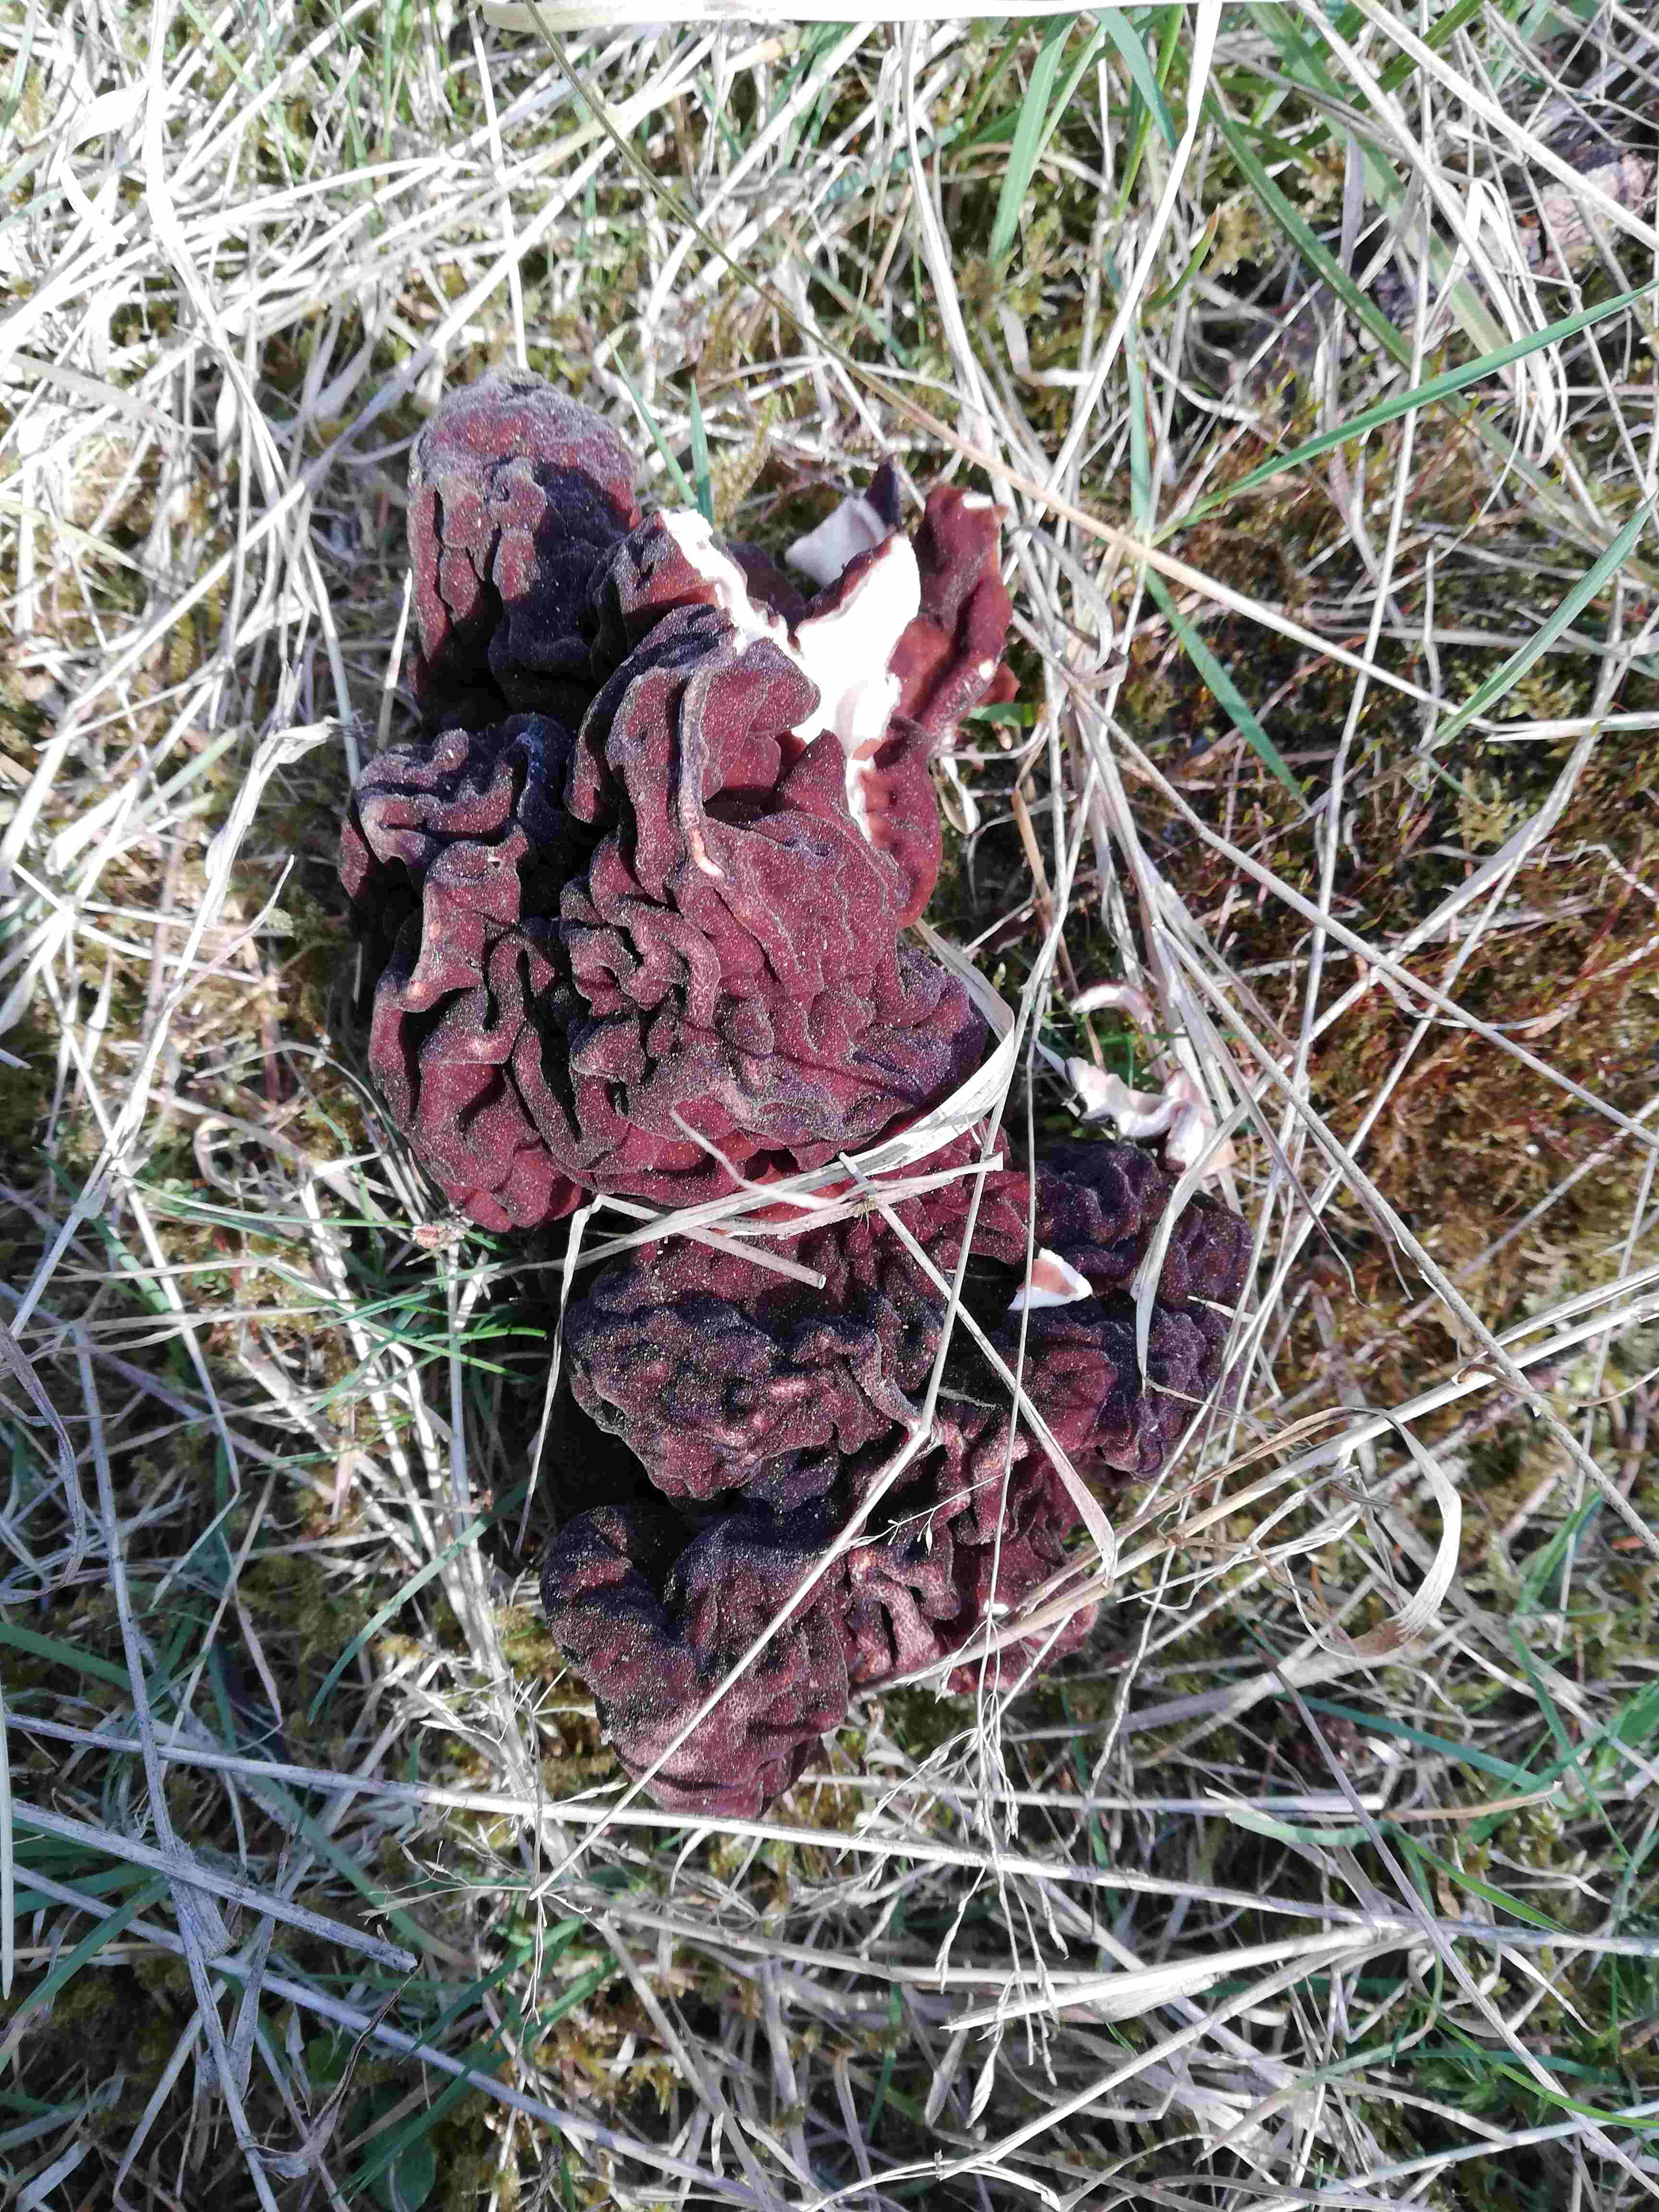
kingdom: Fungi
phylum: Ascomycota
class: Pezizomycetes
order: Pezizales
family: Discinaceae
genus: Gyromitra
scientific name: Gyromitra esculenta
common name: ægte stenmorkel
